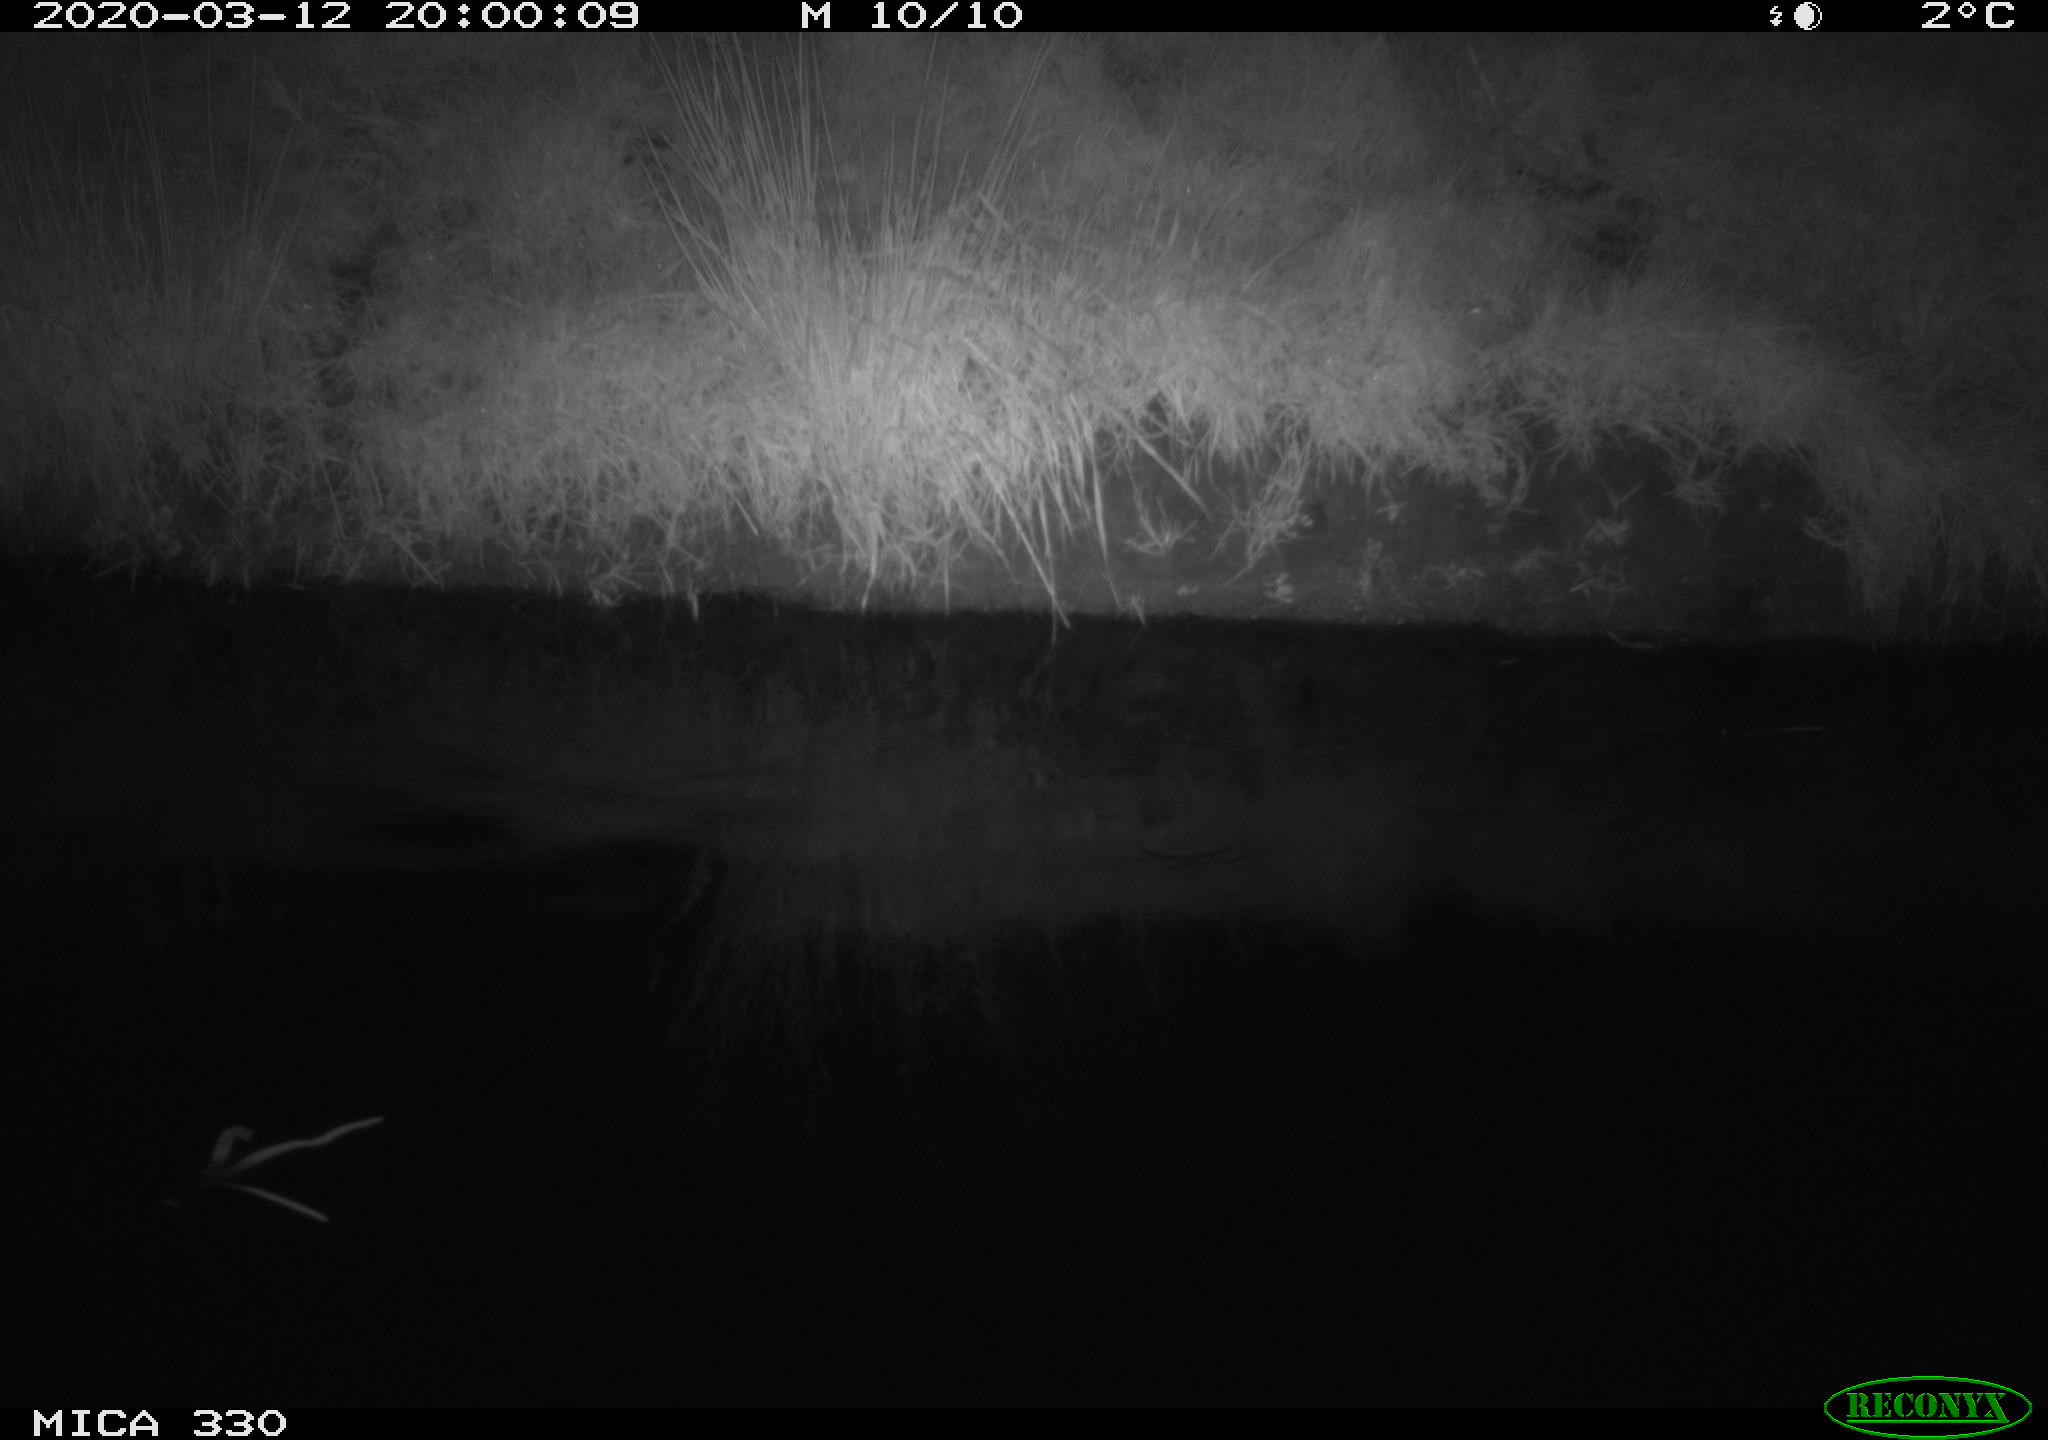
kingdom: Animalia
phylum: Chordata
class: Aves
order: Anseriformes
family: Anatidae
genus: Anas
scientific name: Anas platyrhynchos
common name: Mallard
